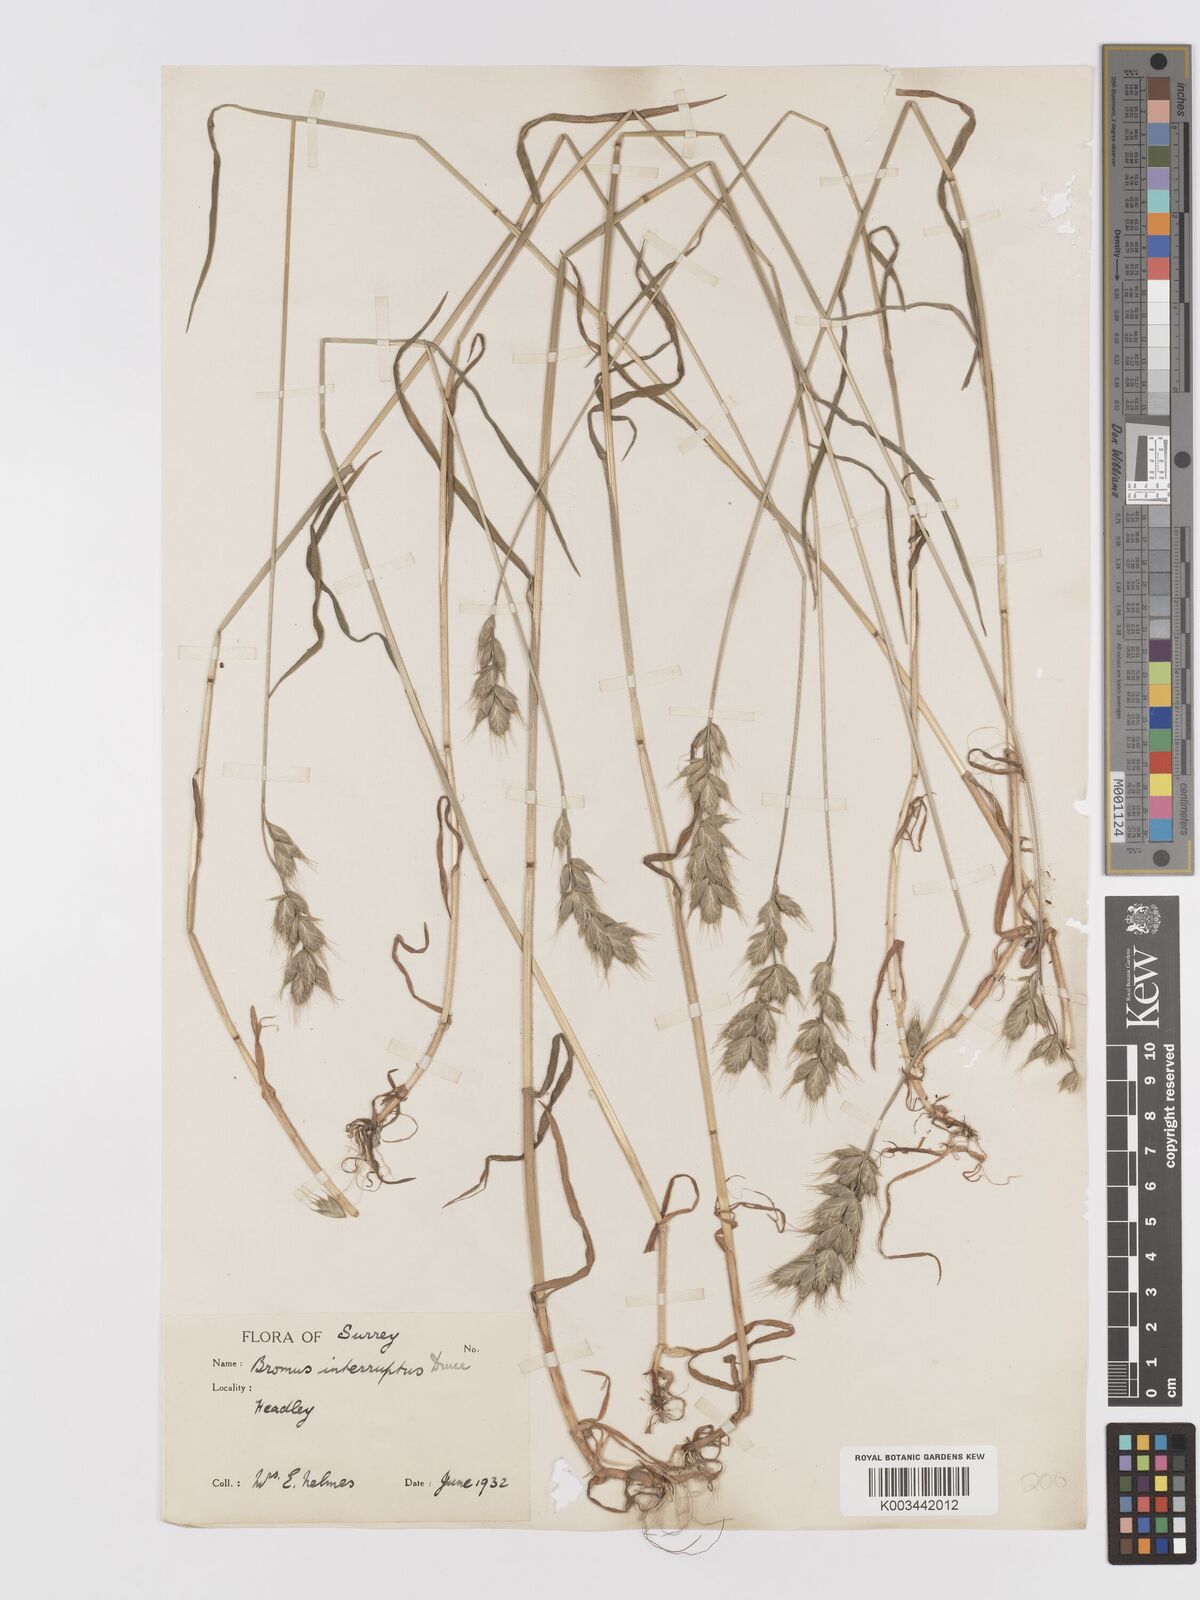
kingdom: Plantae
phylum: Tracheophyta
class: Liliopsida
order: Poales
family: Poaceae
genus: Bromus
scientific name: Bromus interruptus
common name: Interrupted brome
